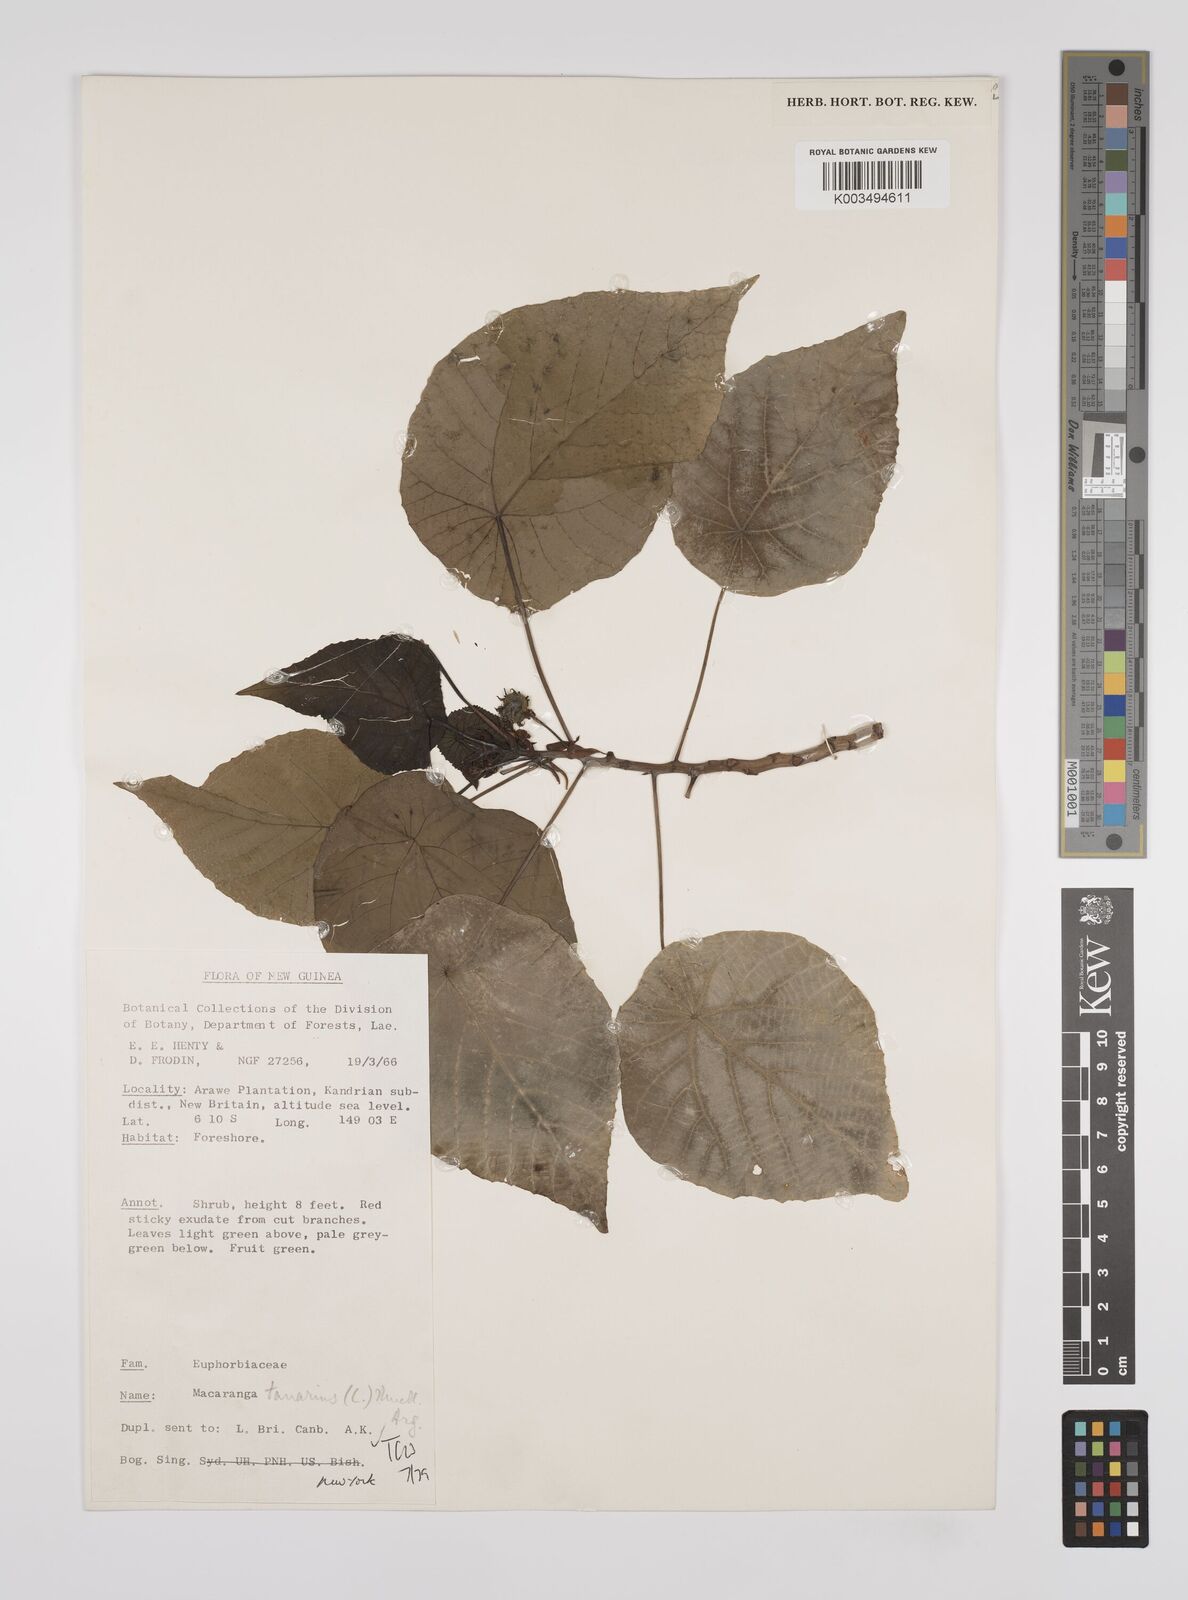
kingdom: Plantae
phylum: Tracheophyta
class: Magnoliopsida
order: Malpighiales
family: Euphorbiaceae
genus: Macaranga
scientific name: Macaranga tanarius
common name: Parasol leaf tree
